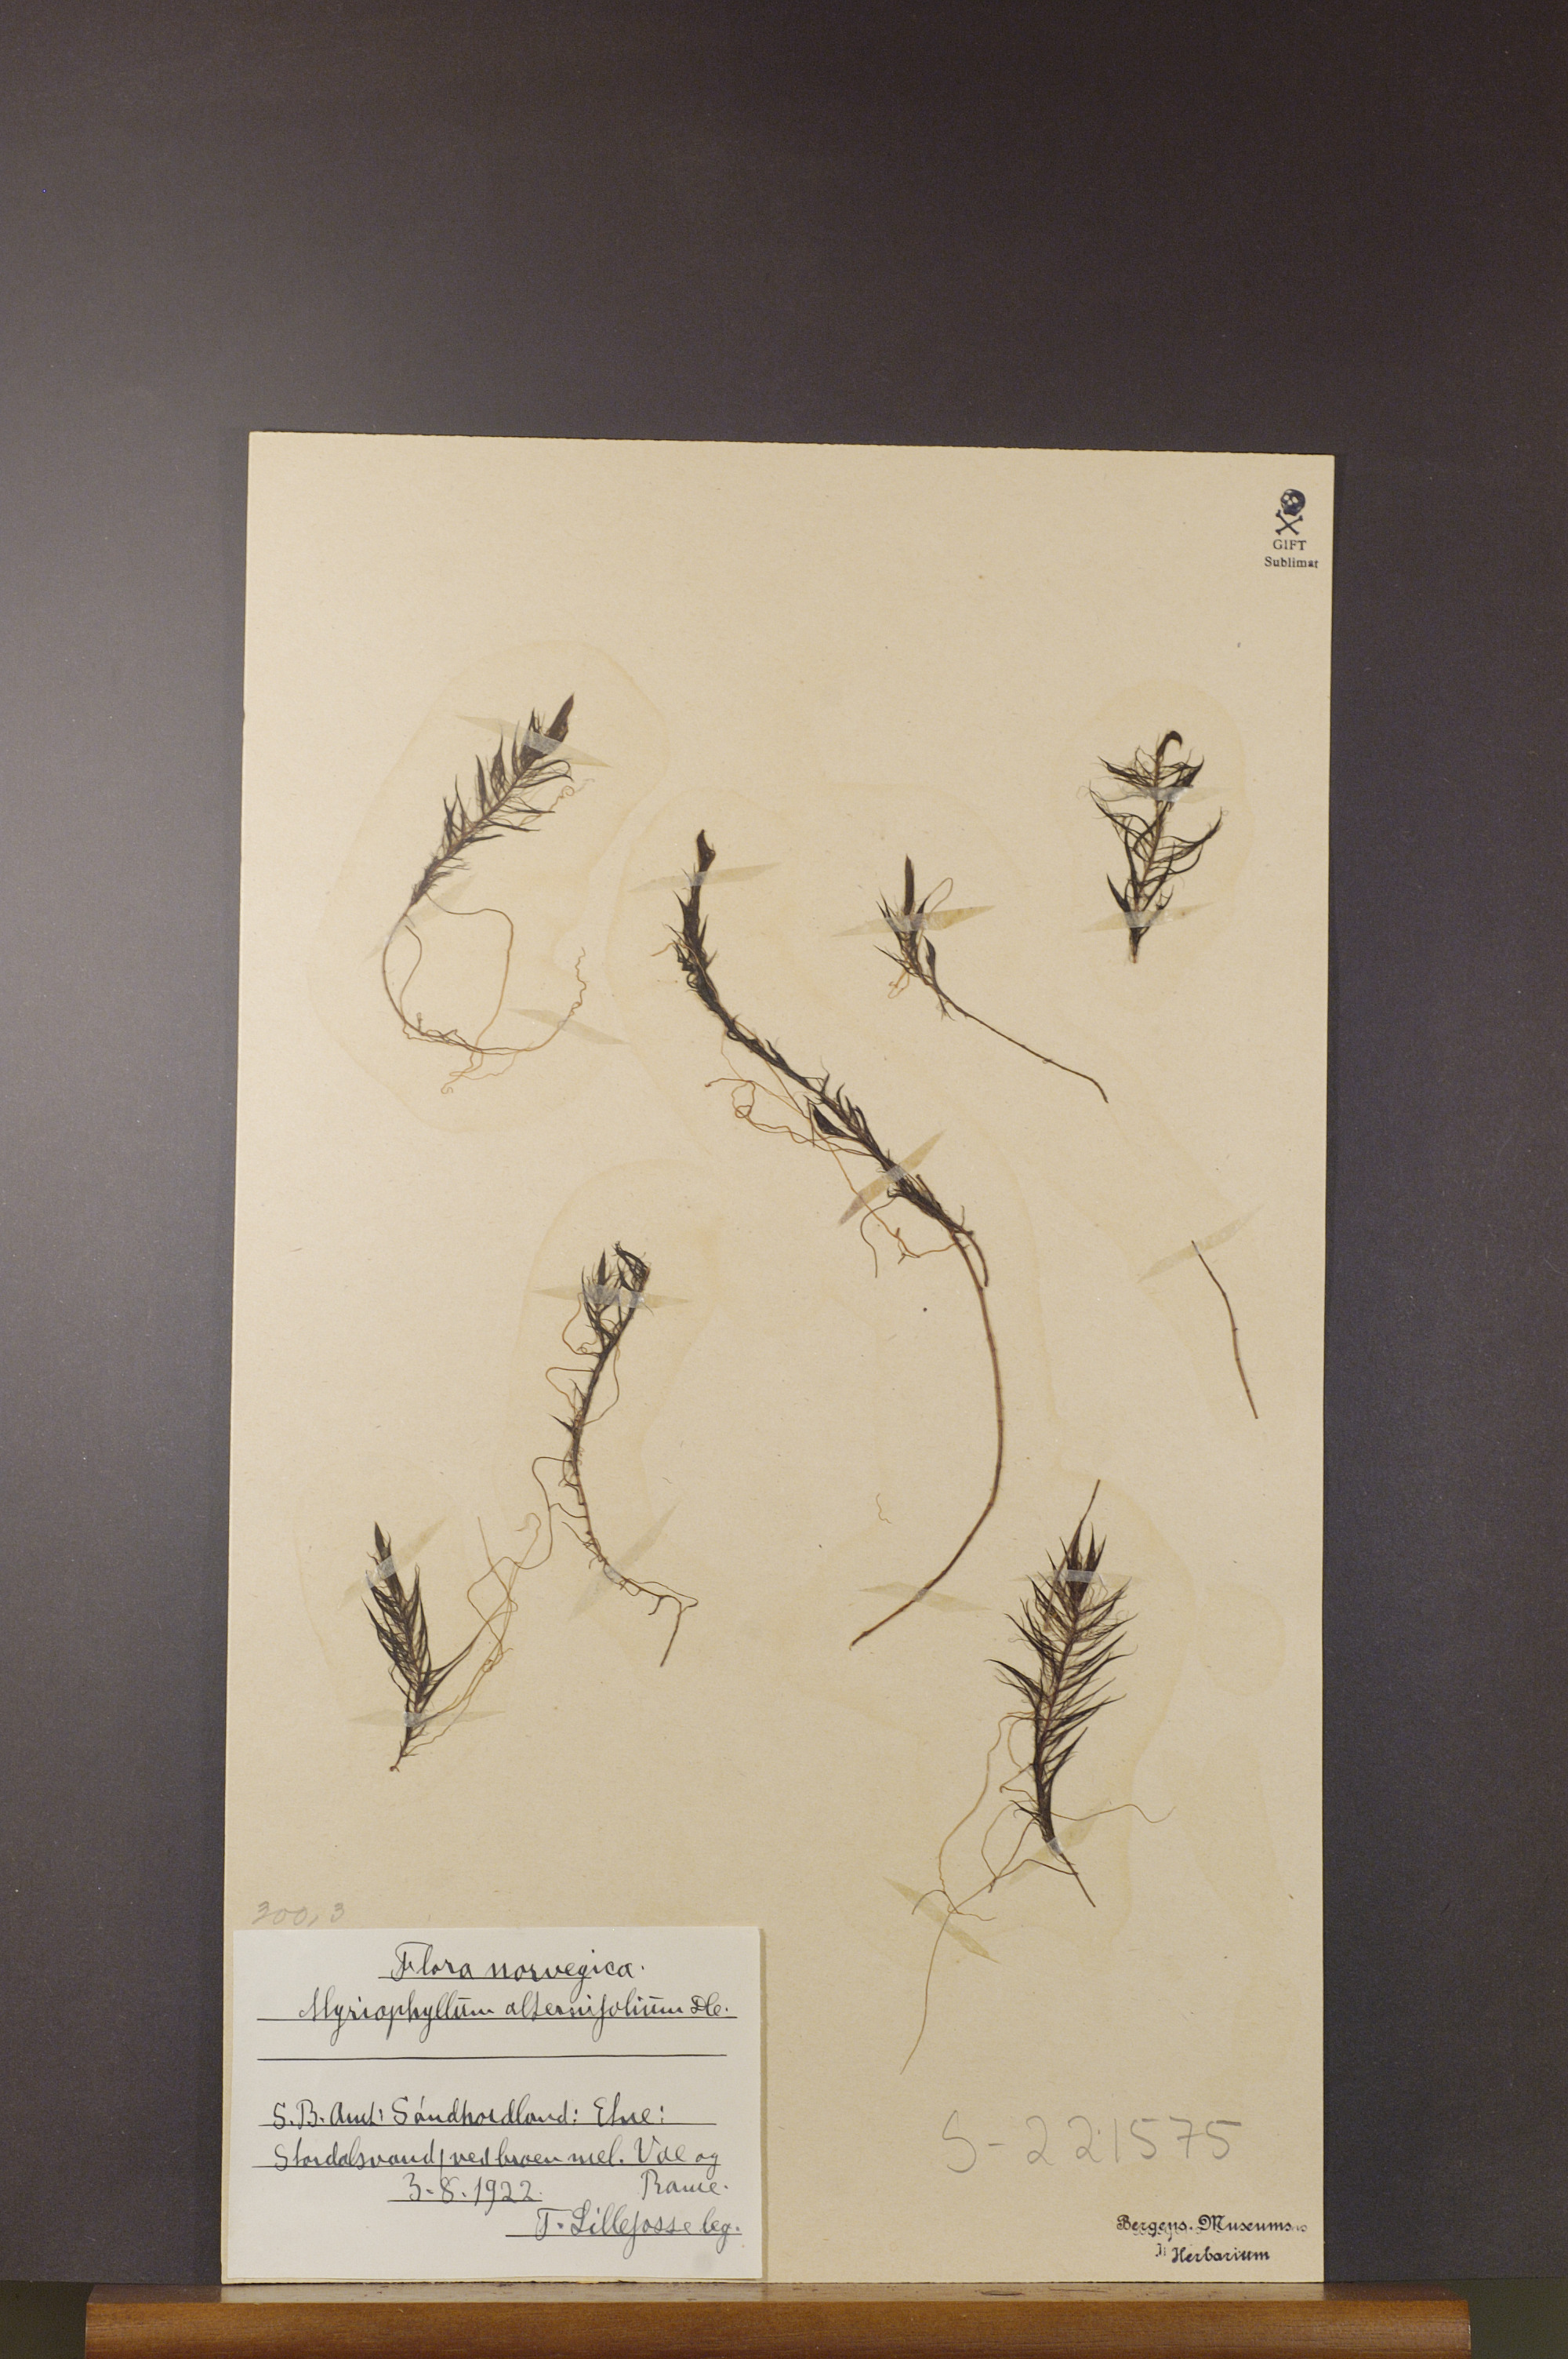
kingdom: Plantae
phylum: Tracheophyta
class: Magnoliopsida
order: Saxifragales
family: Haloragaceae
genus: Myriophyllum
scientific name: Myriophyllum alterniflorum
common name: Alternate water-milfoil
